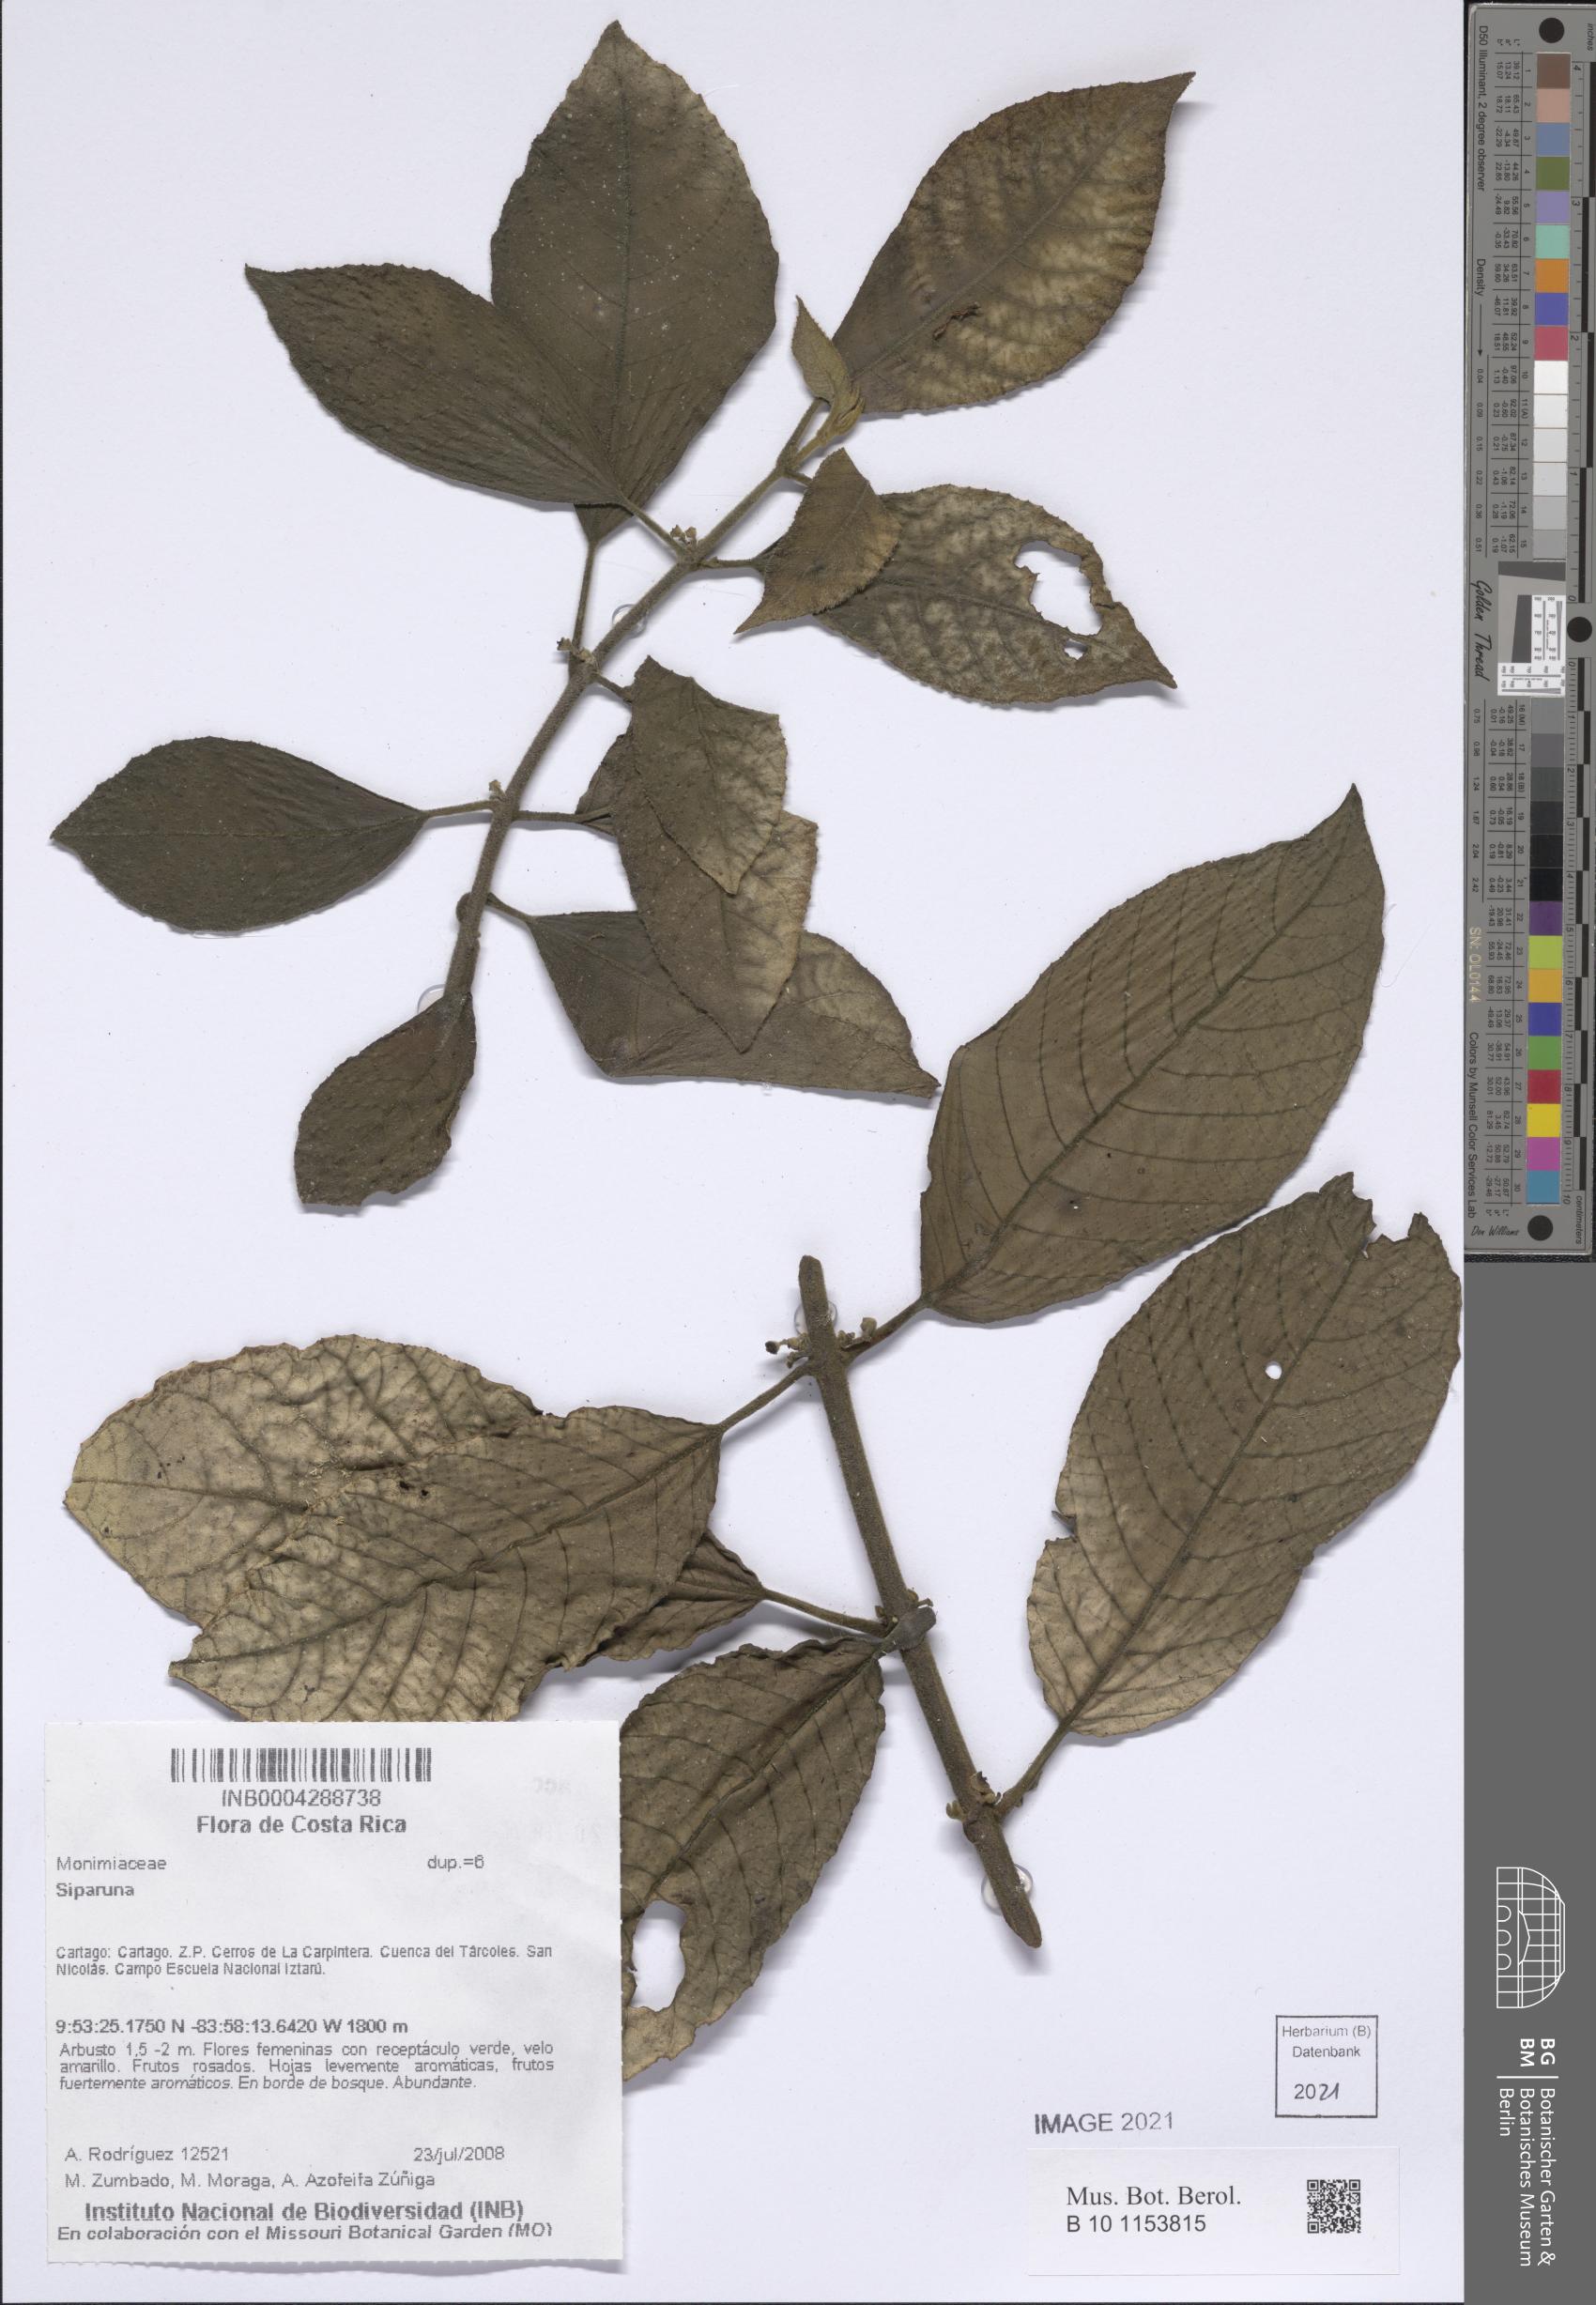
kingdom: Plantae
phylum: Tracheophyta
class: Magnoliopsida
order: Laurales
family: Siparunaceae
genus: Siparuna
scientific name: Siparuna
